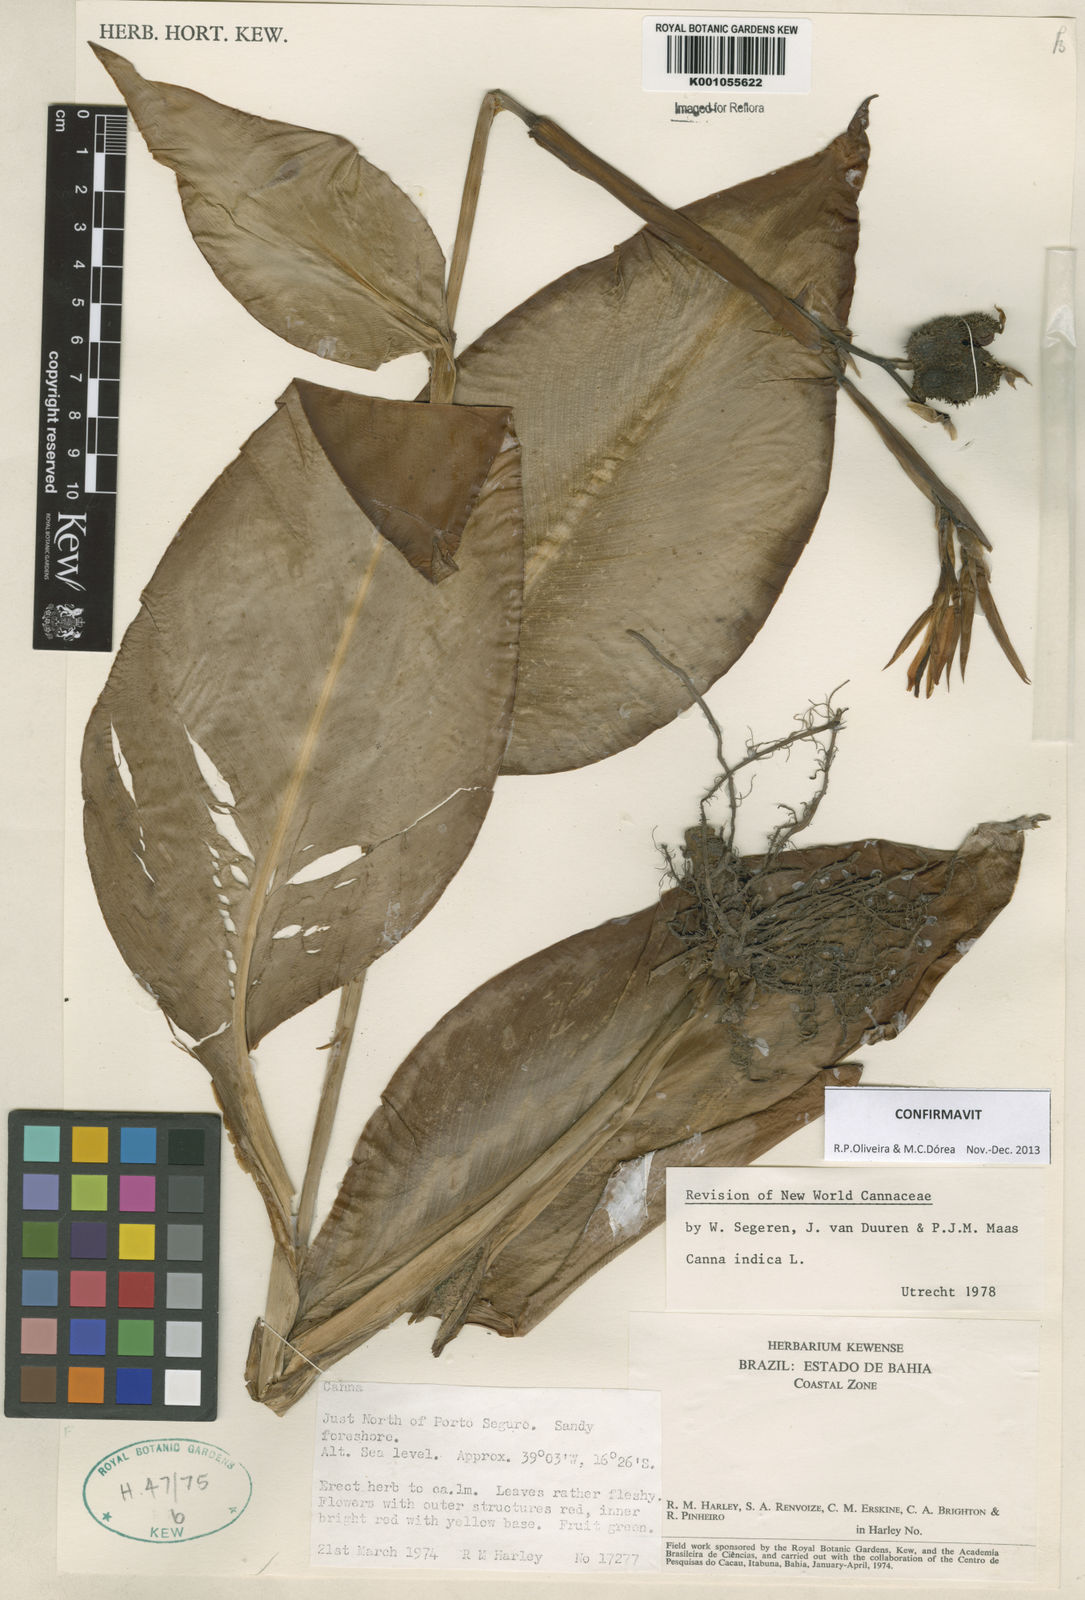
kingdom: Plantae
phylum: Tracheophyta
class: Liliopsida
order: Zingiberales
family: Cannaceae
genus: Canna
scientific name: Canna indica
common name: Indian shot
